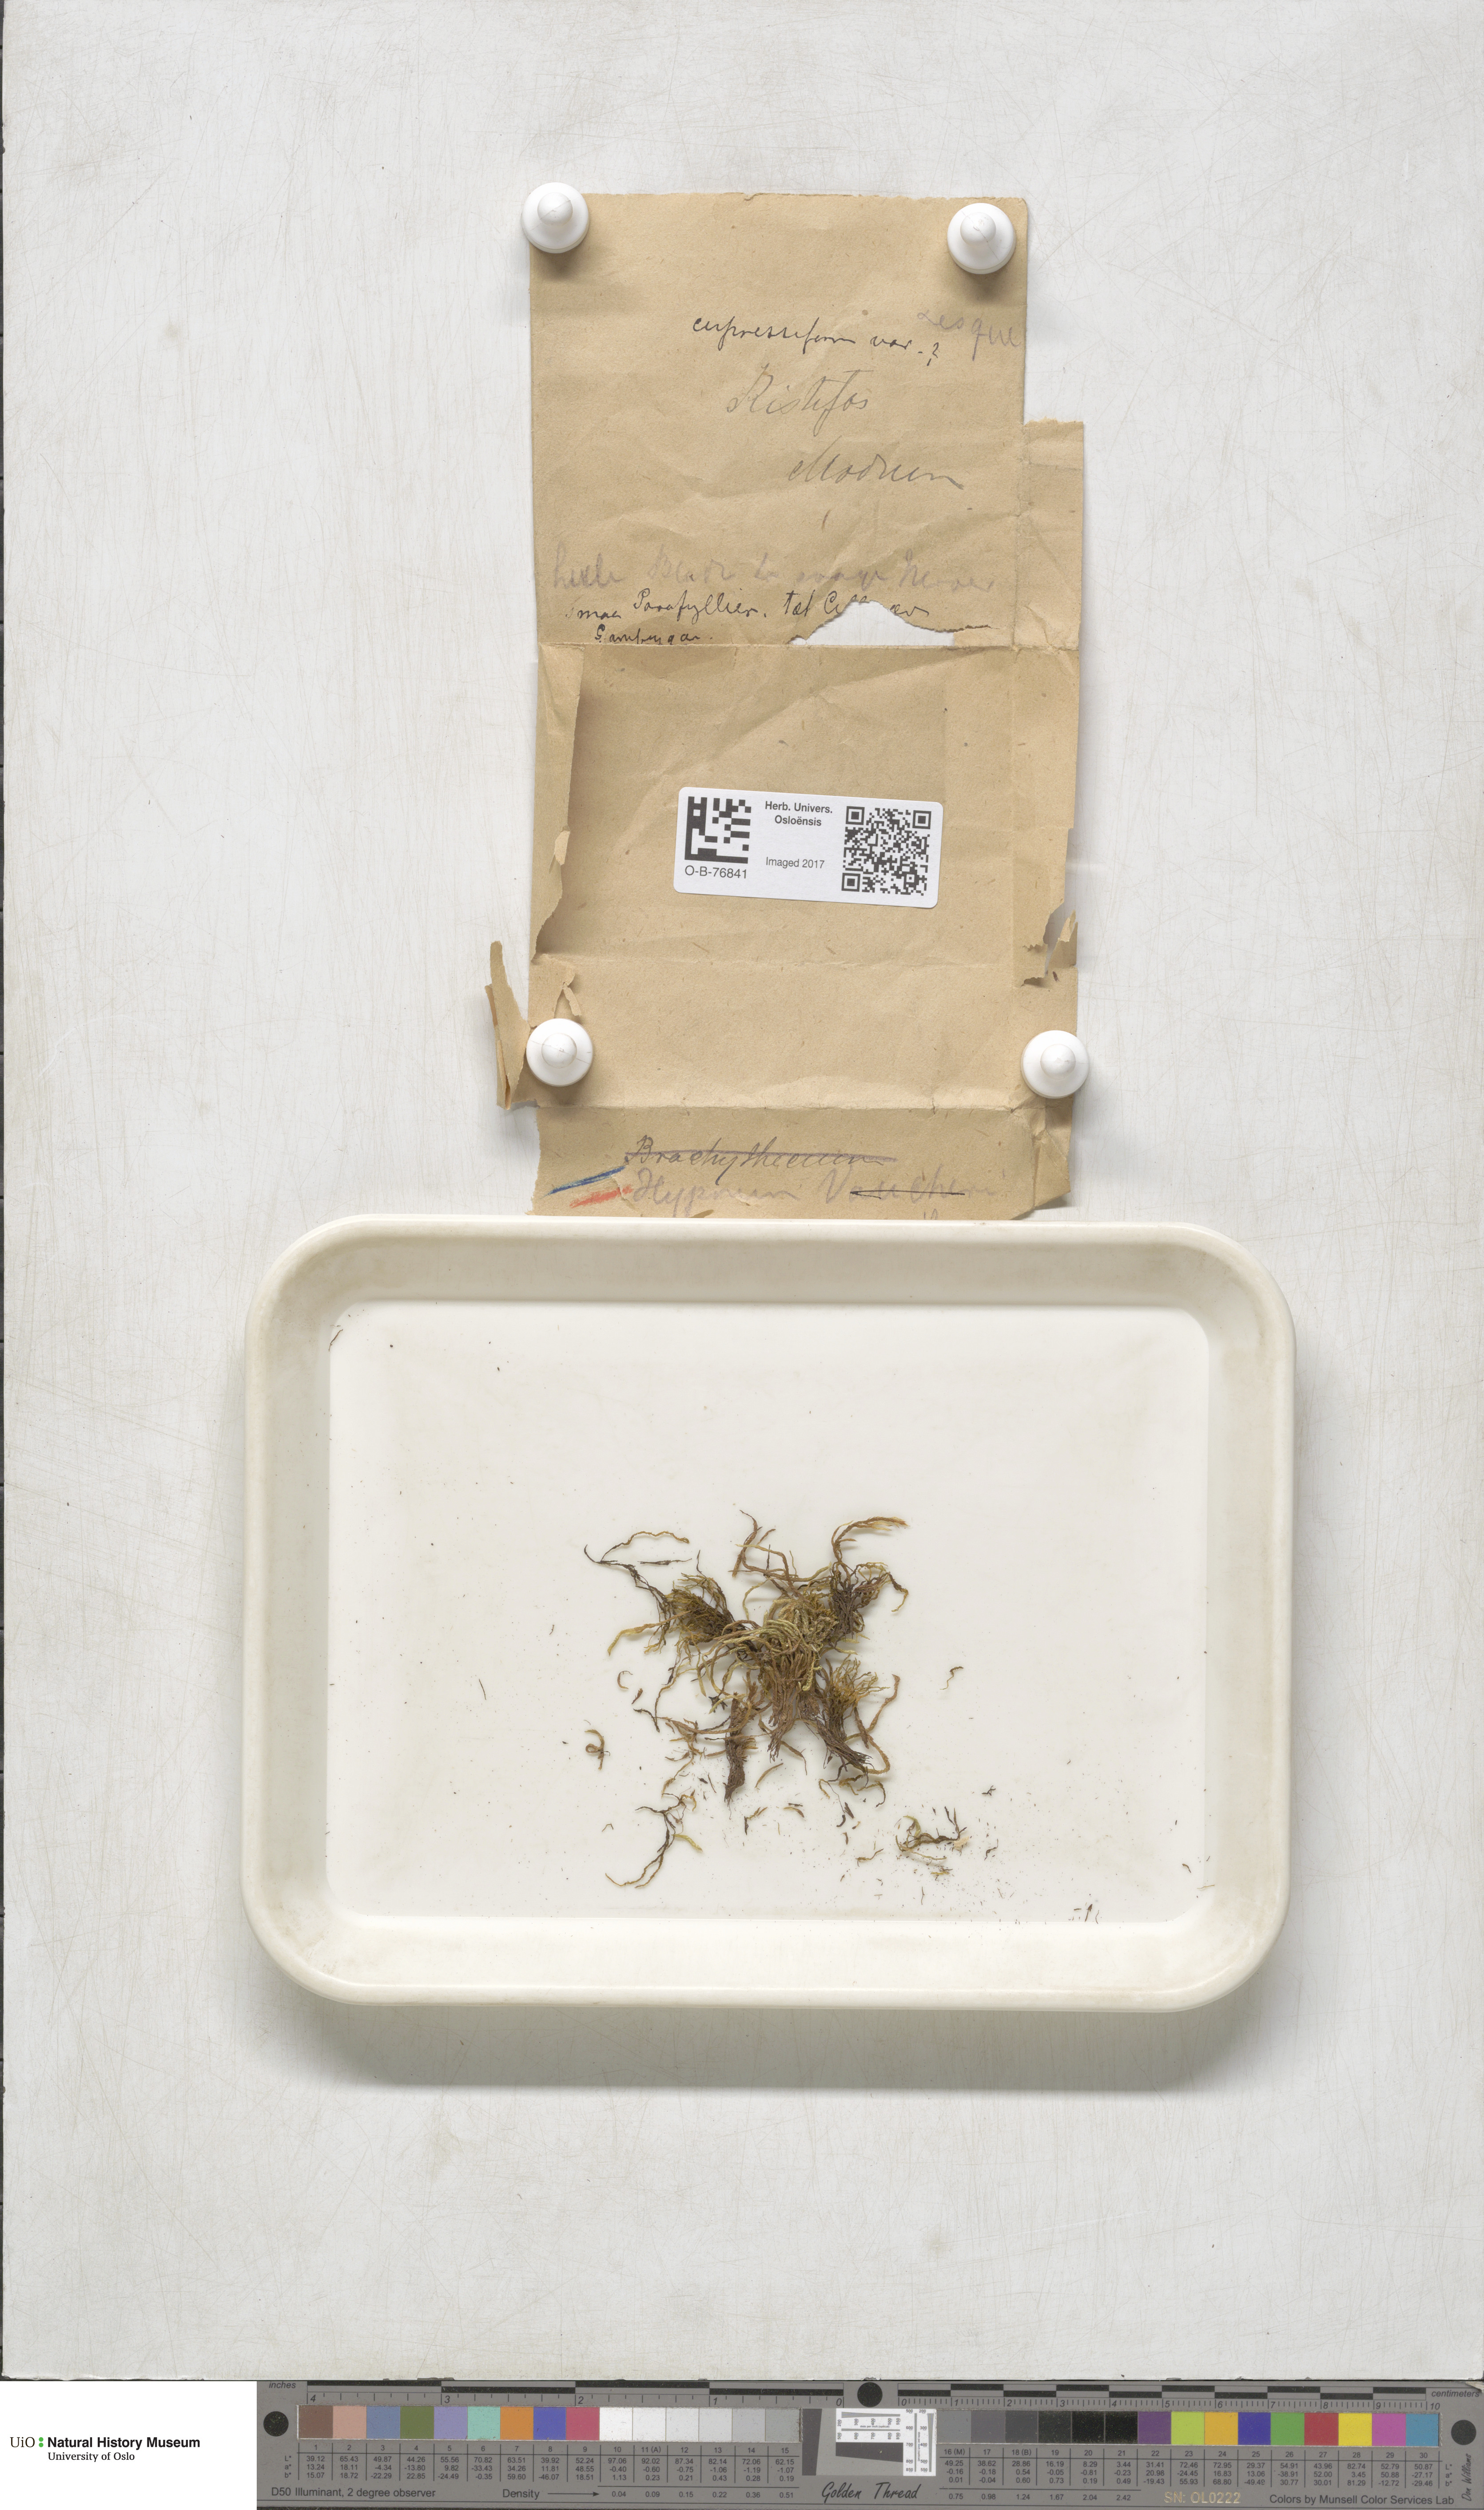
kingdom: Plantae
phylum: Bryophyta
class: Bryopsida
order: Hypnales
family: Hypnaceae
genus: Hypnum
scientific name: Hypnum cupressiforme
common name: Cypress-leaved plait-moss
